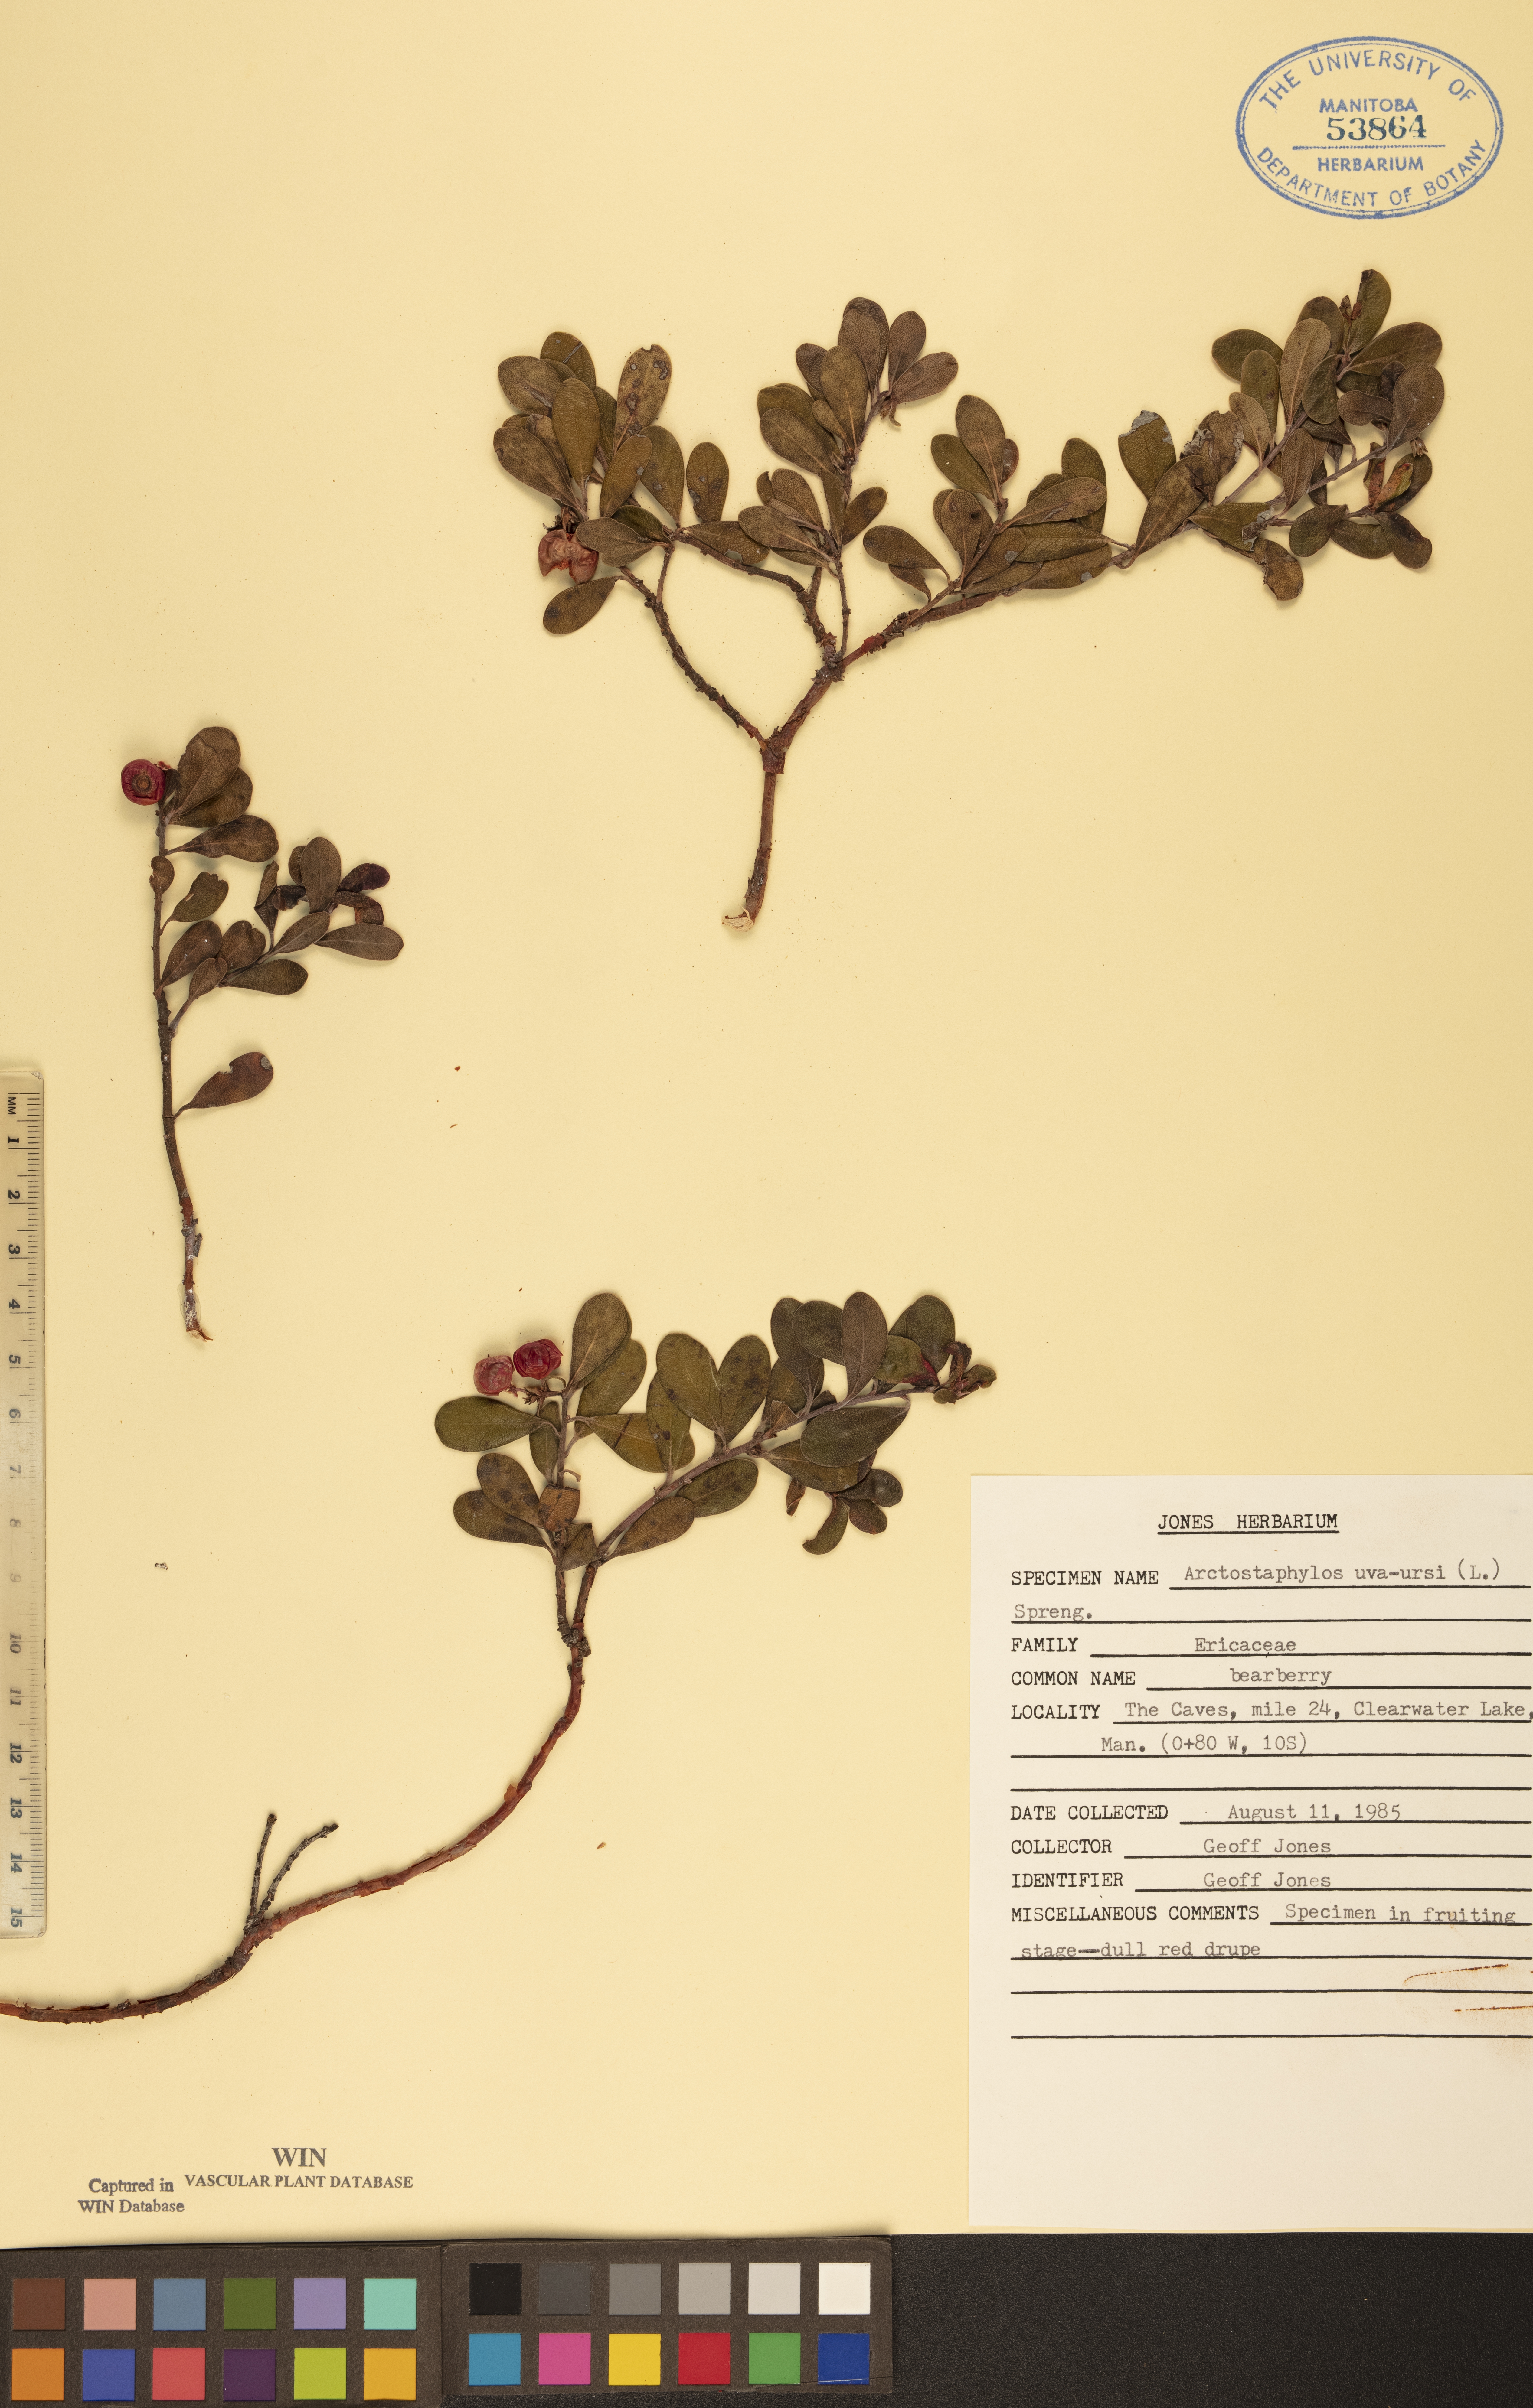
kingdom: Plantae
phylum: Tracheophyta
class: Magnoliopsida
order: Ericales
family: Ericaceae
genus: Arctostaphylos
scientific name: Arctostaphylos uva-ursi
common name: Bearberry
